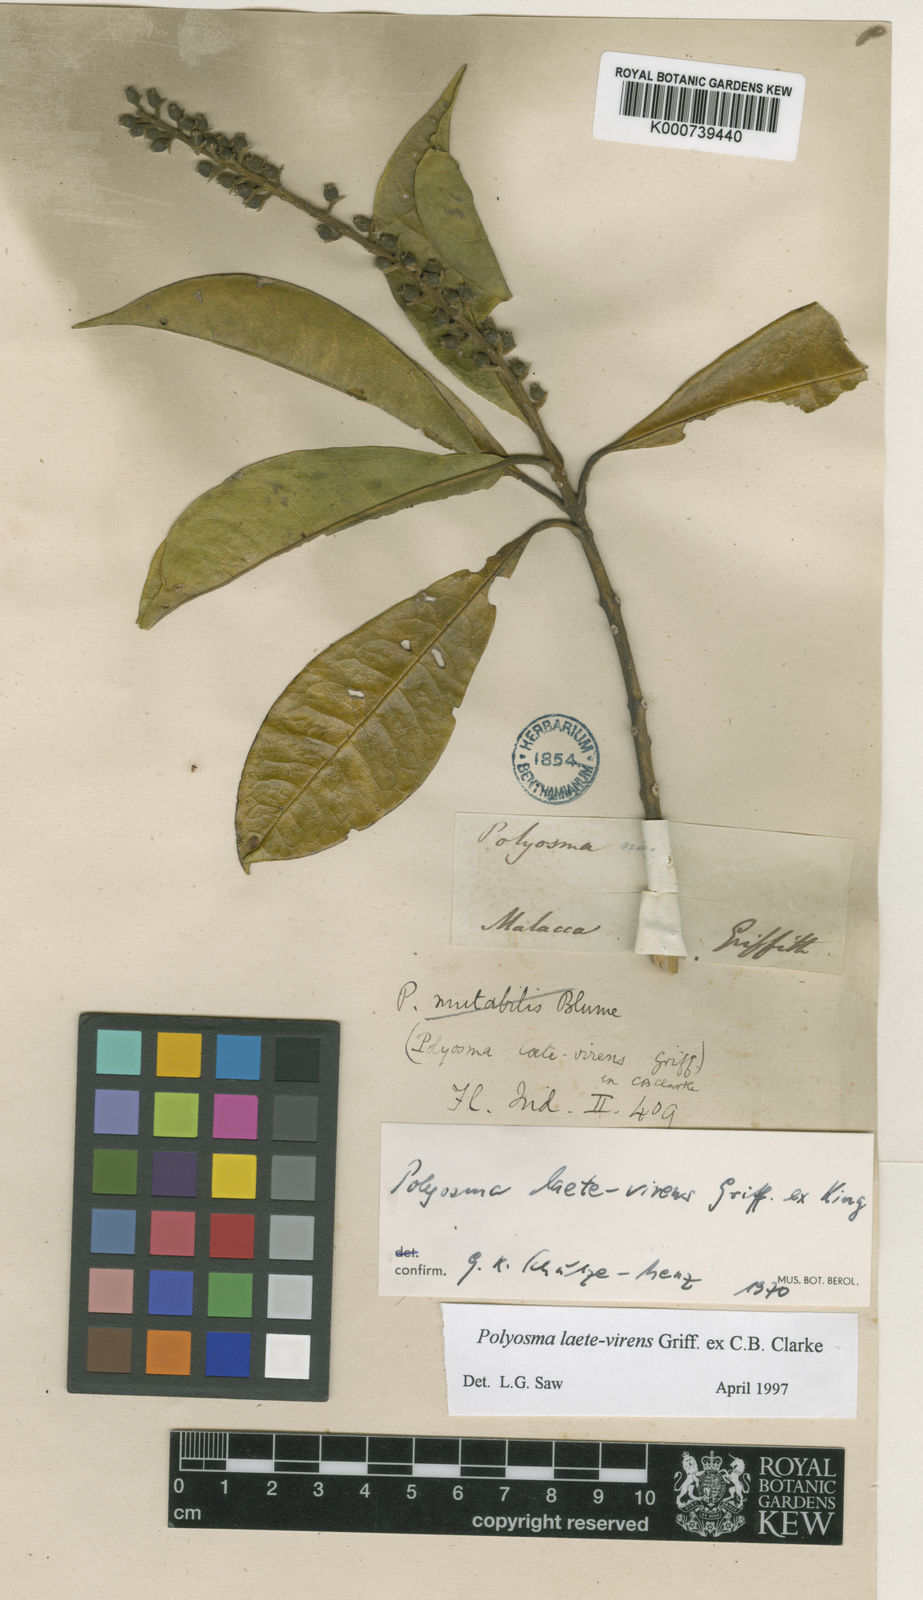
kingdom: Plantae
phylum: Tracheophyta
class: Magnoliopsida
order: Escalloniales
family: Escalloniaceae
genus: Polyosma
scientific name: Polyosma
